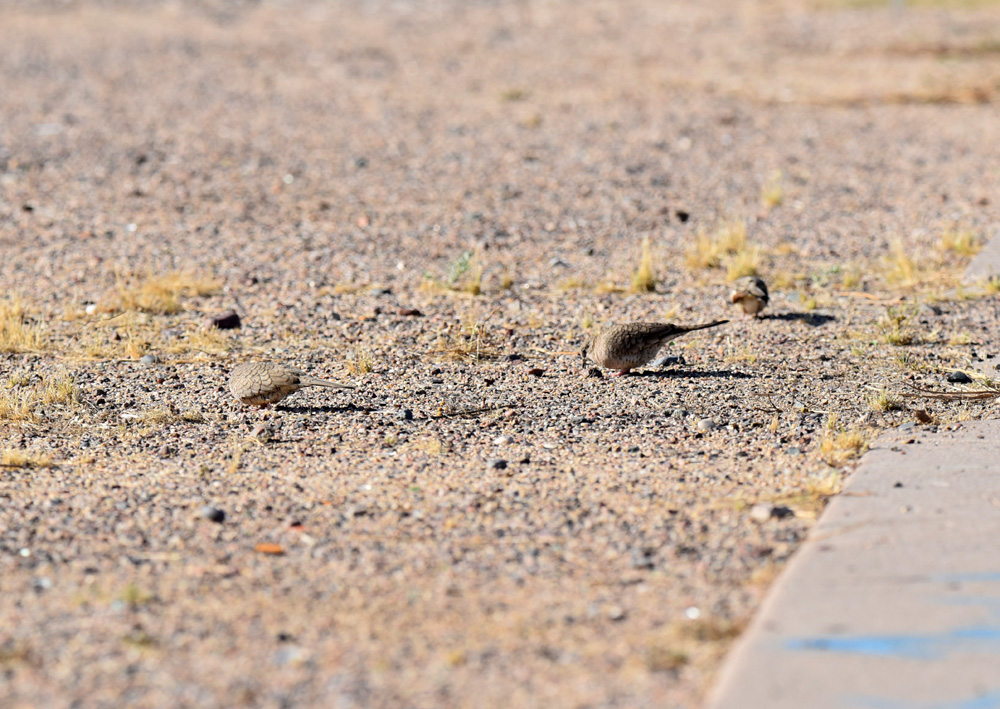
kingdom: Animalia
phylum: Chordata
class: Aves
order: Columbiformes
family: Columbidae
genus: Columbina
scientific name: Columbina inca
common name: Inca dove
